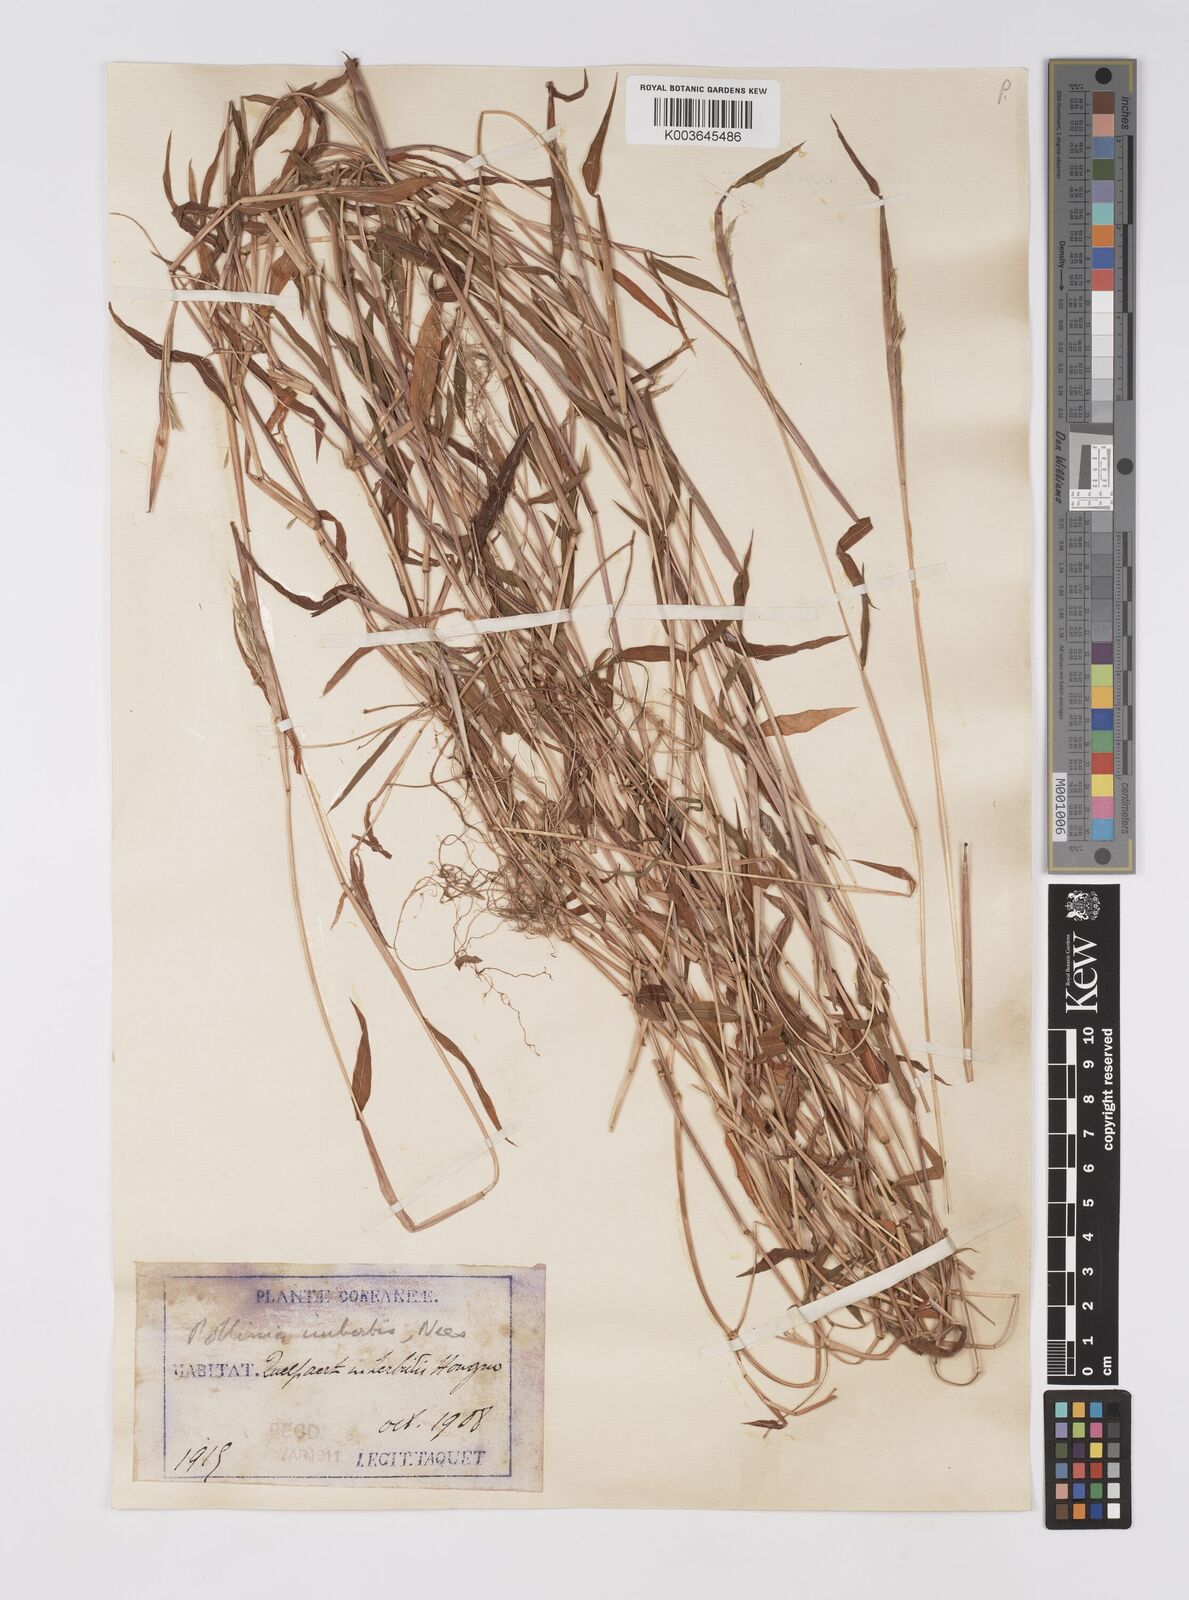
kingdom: Plantae
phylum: Tracheophyta
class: Liliopsida
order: Poales
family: Poaceae
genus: Microstegium
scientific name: Microstegium vimineum
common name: Japanese stiltgrass
